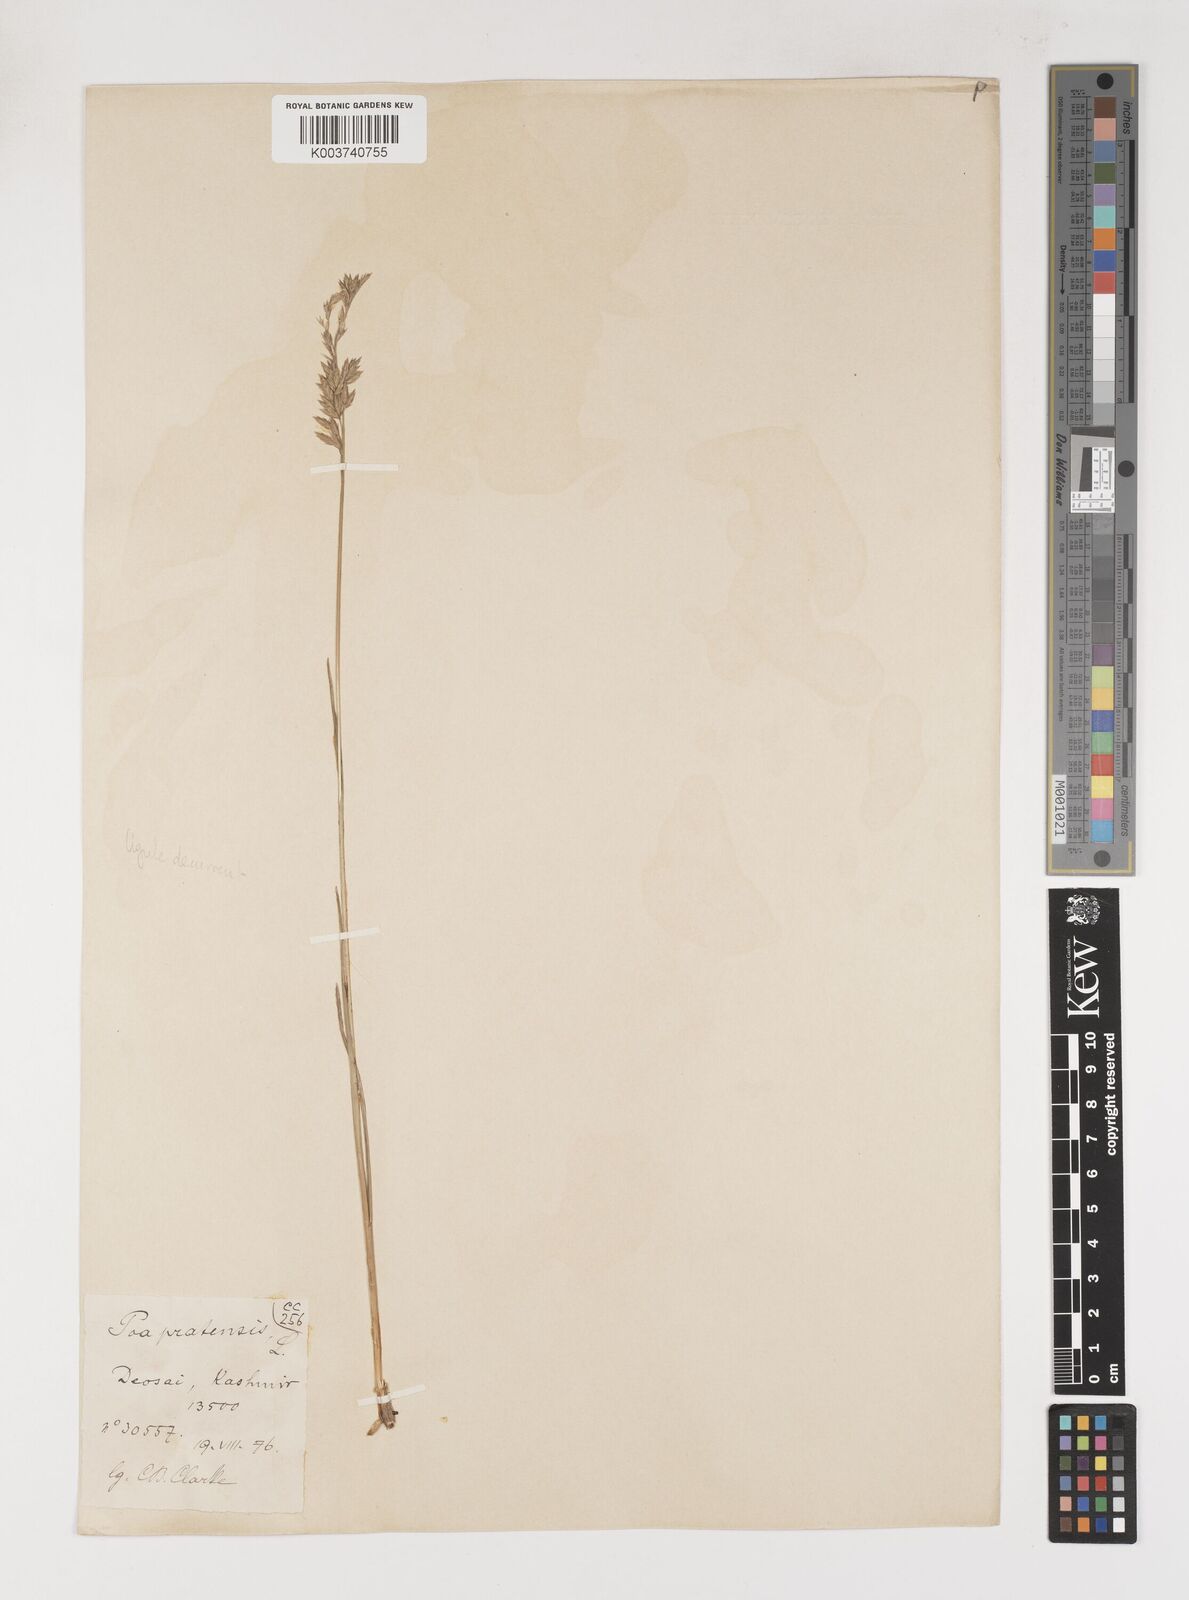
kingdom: Plantae
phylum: Tracheophyta
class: Liliopsida
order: Poales
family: Poaceae
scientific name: Poaceae
